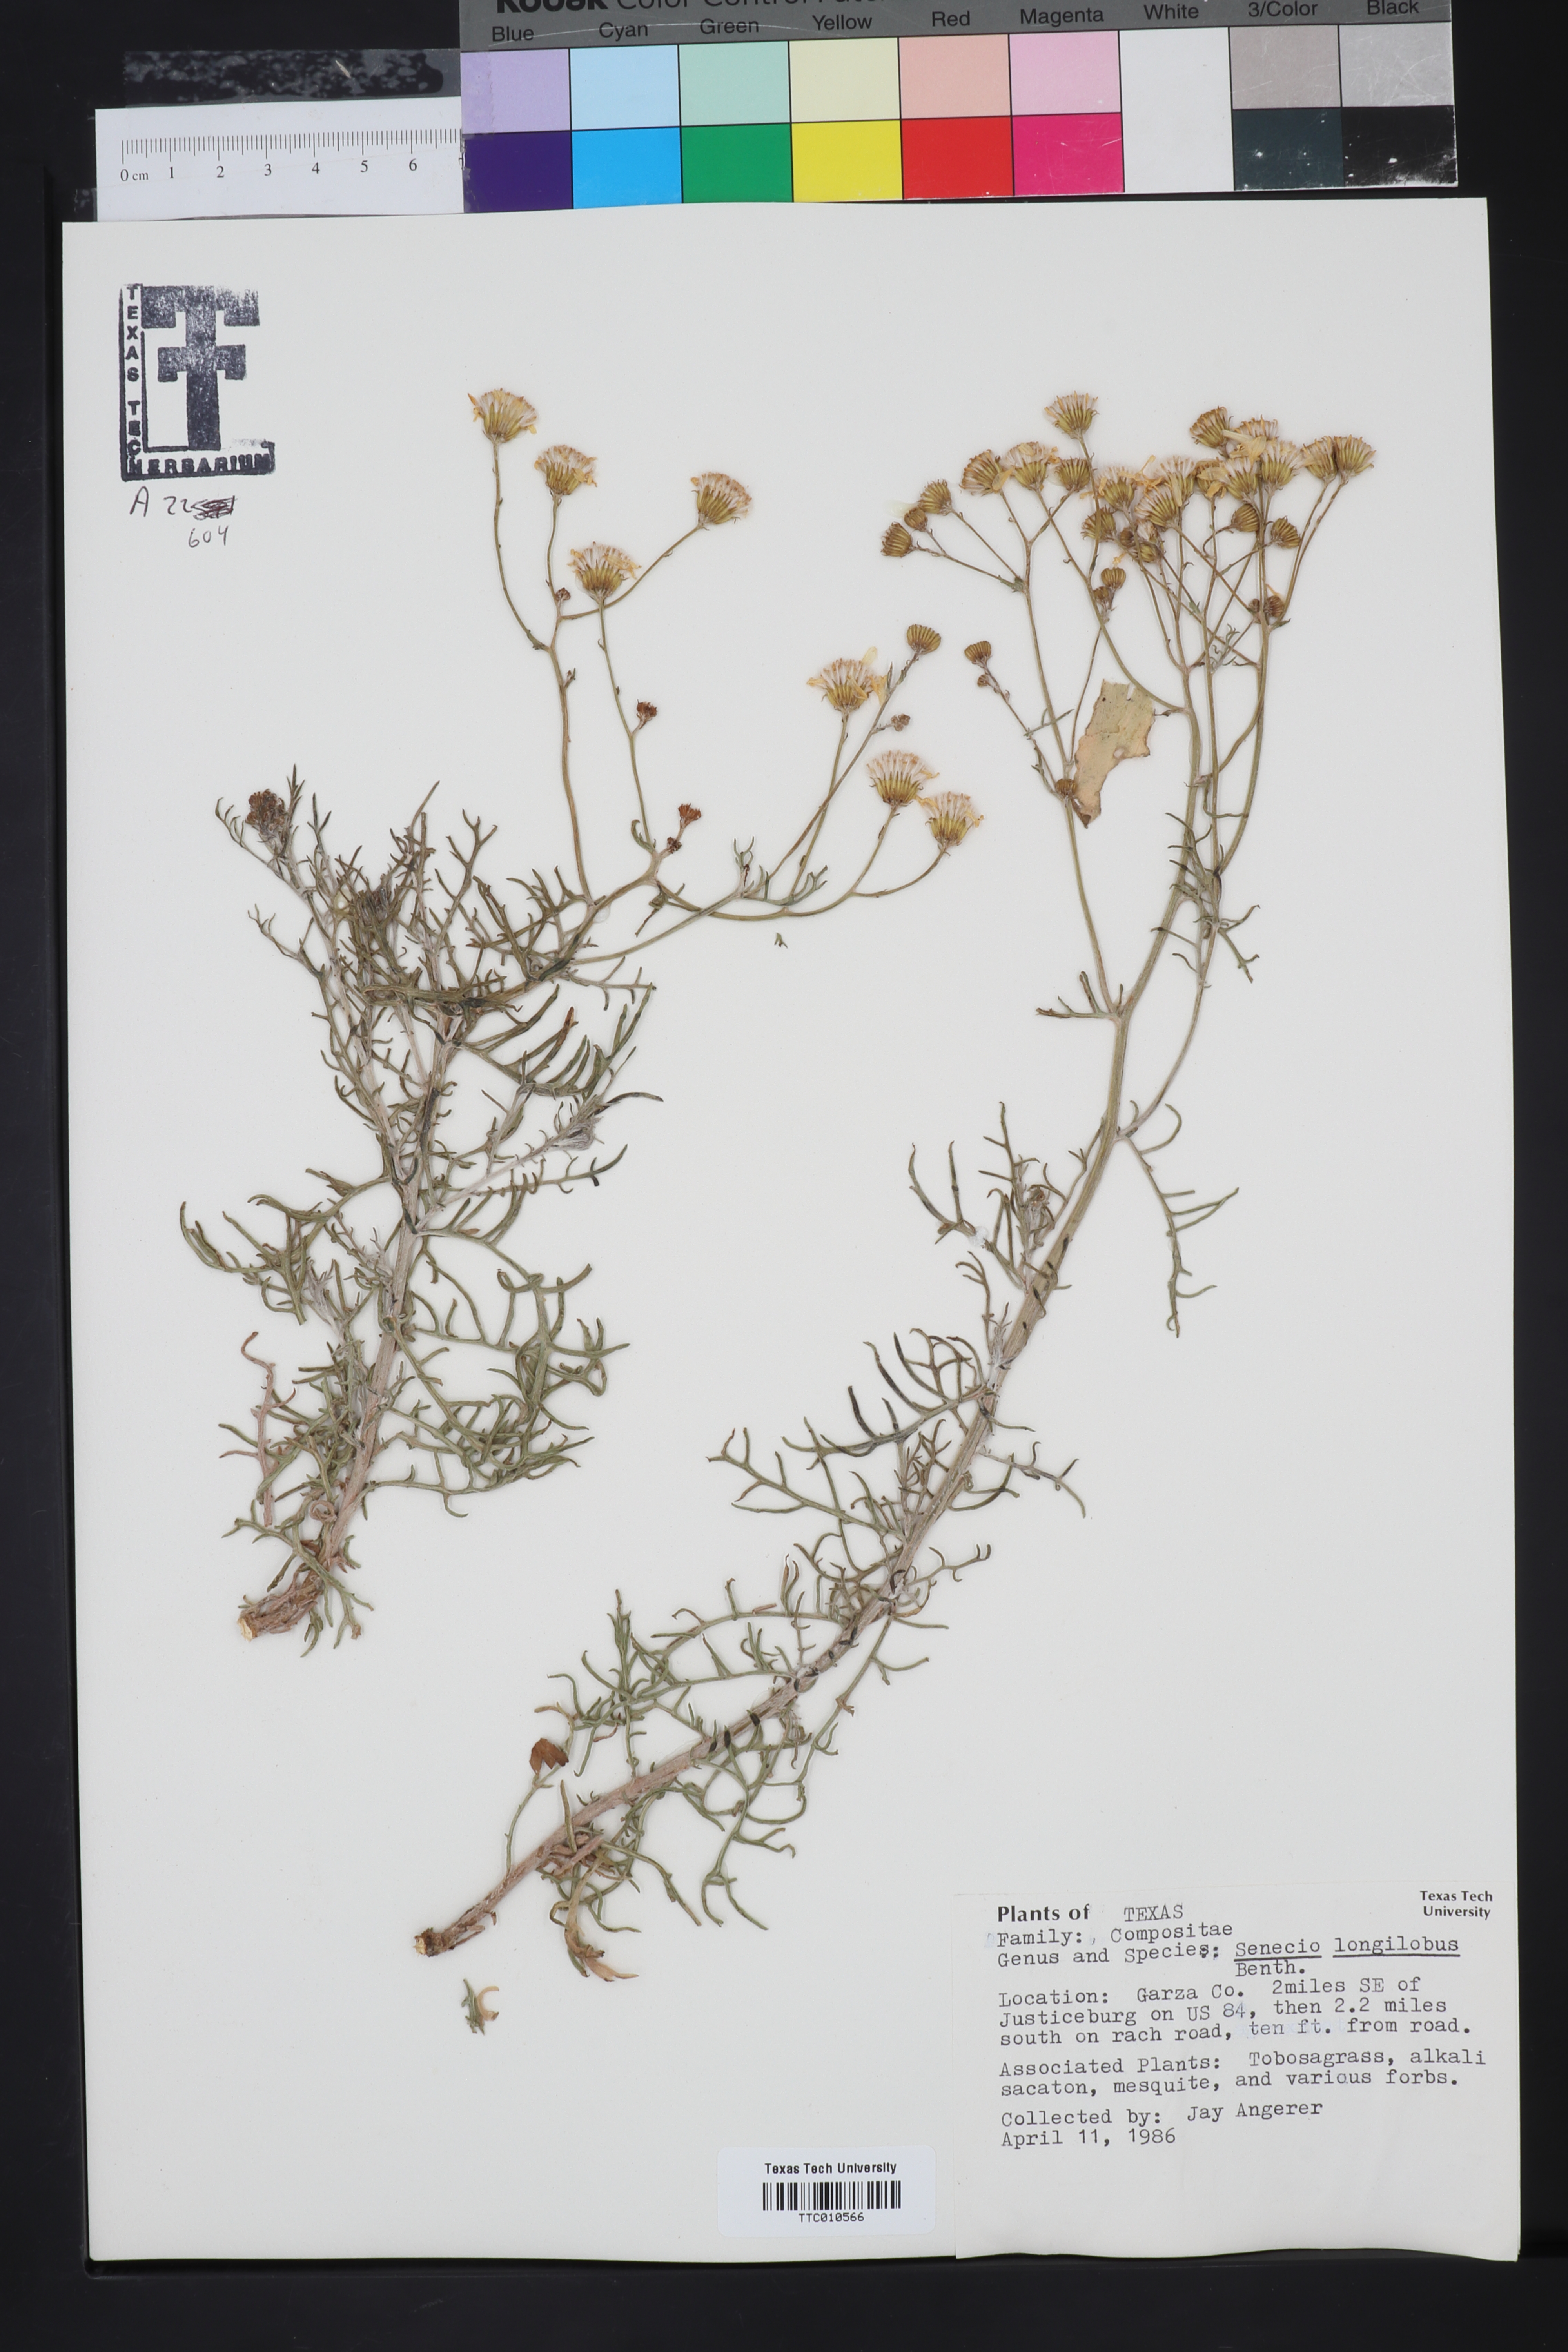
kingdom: Plantae
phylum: Tracheophyta
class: Magnoliopsida
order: Asterales
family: Asteraceae
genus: Senecio
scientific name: Senecio flaccidus
